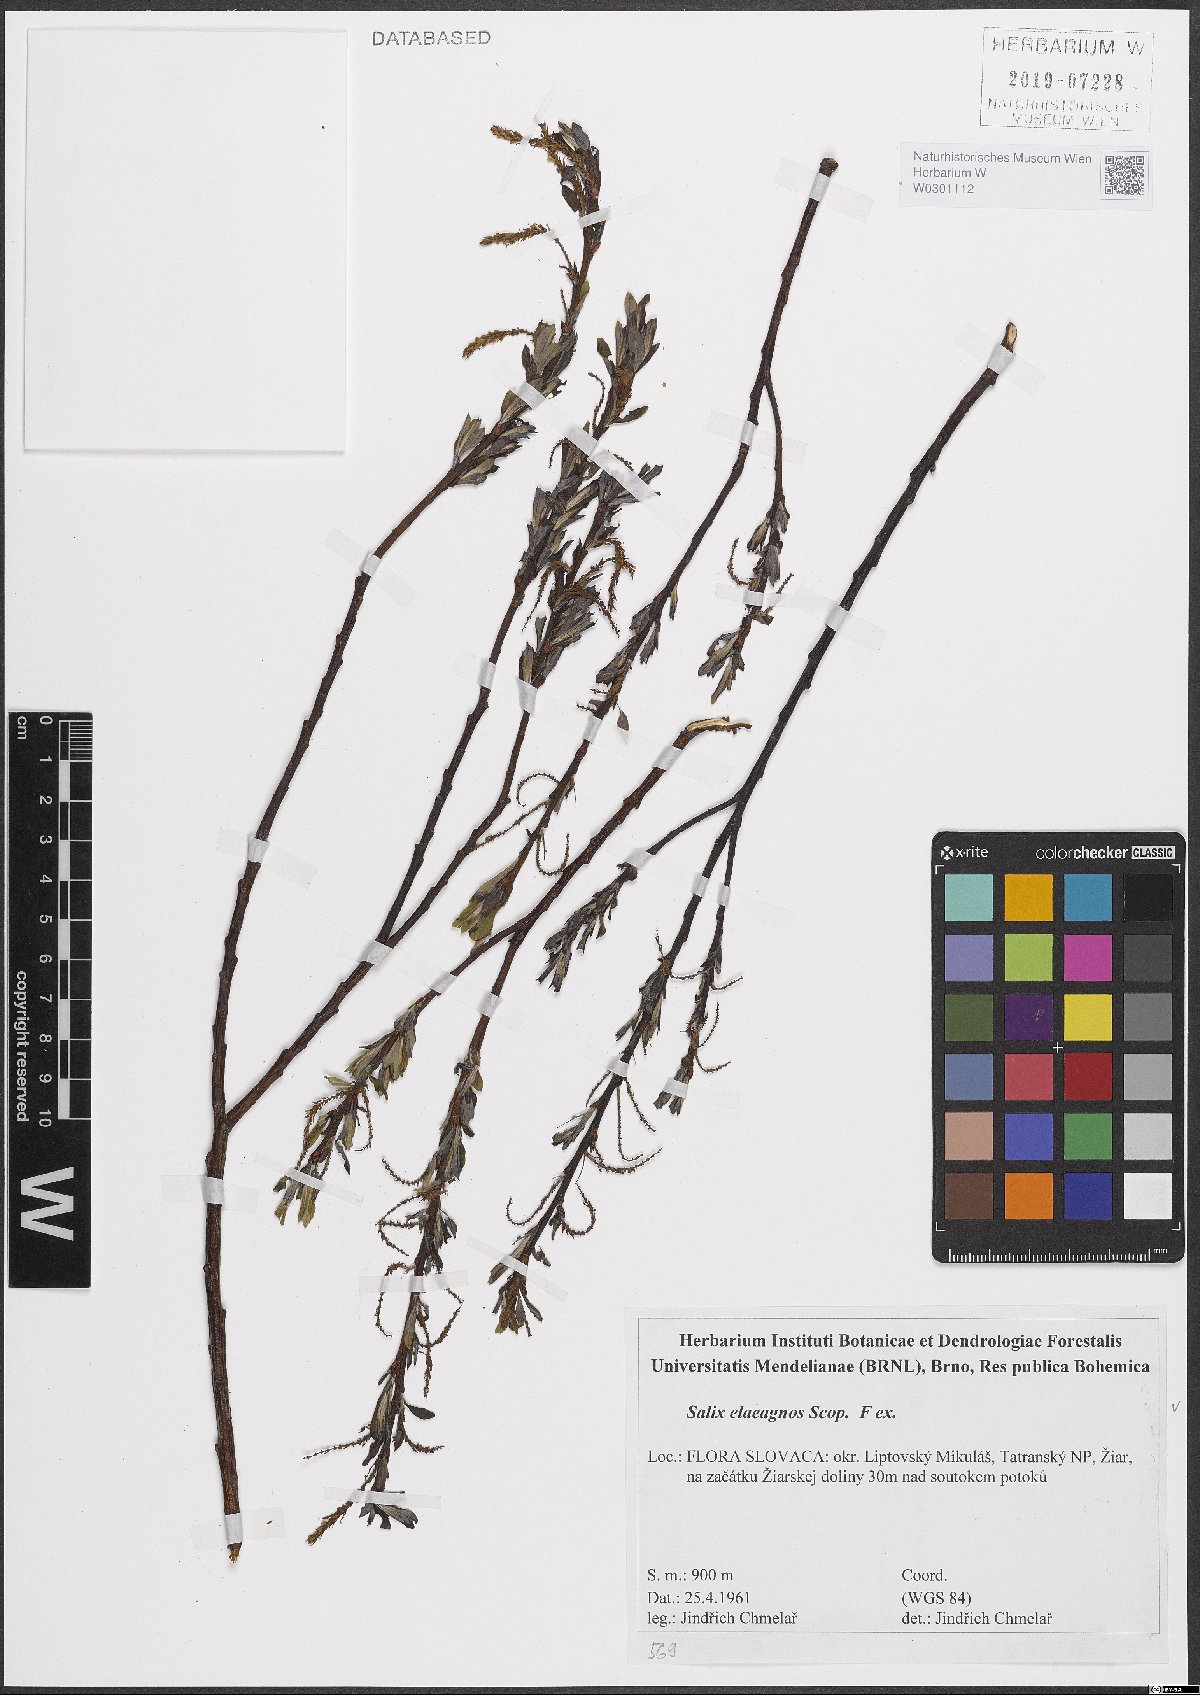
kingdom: Plantae
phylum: Tracheophyta
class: Magnoliopsida
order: Malpighiales
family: Salicaceae
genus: Salix
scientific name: Salix eleagnos
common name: Elaeagnus willow
